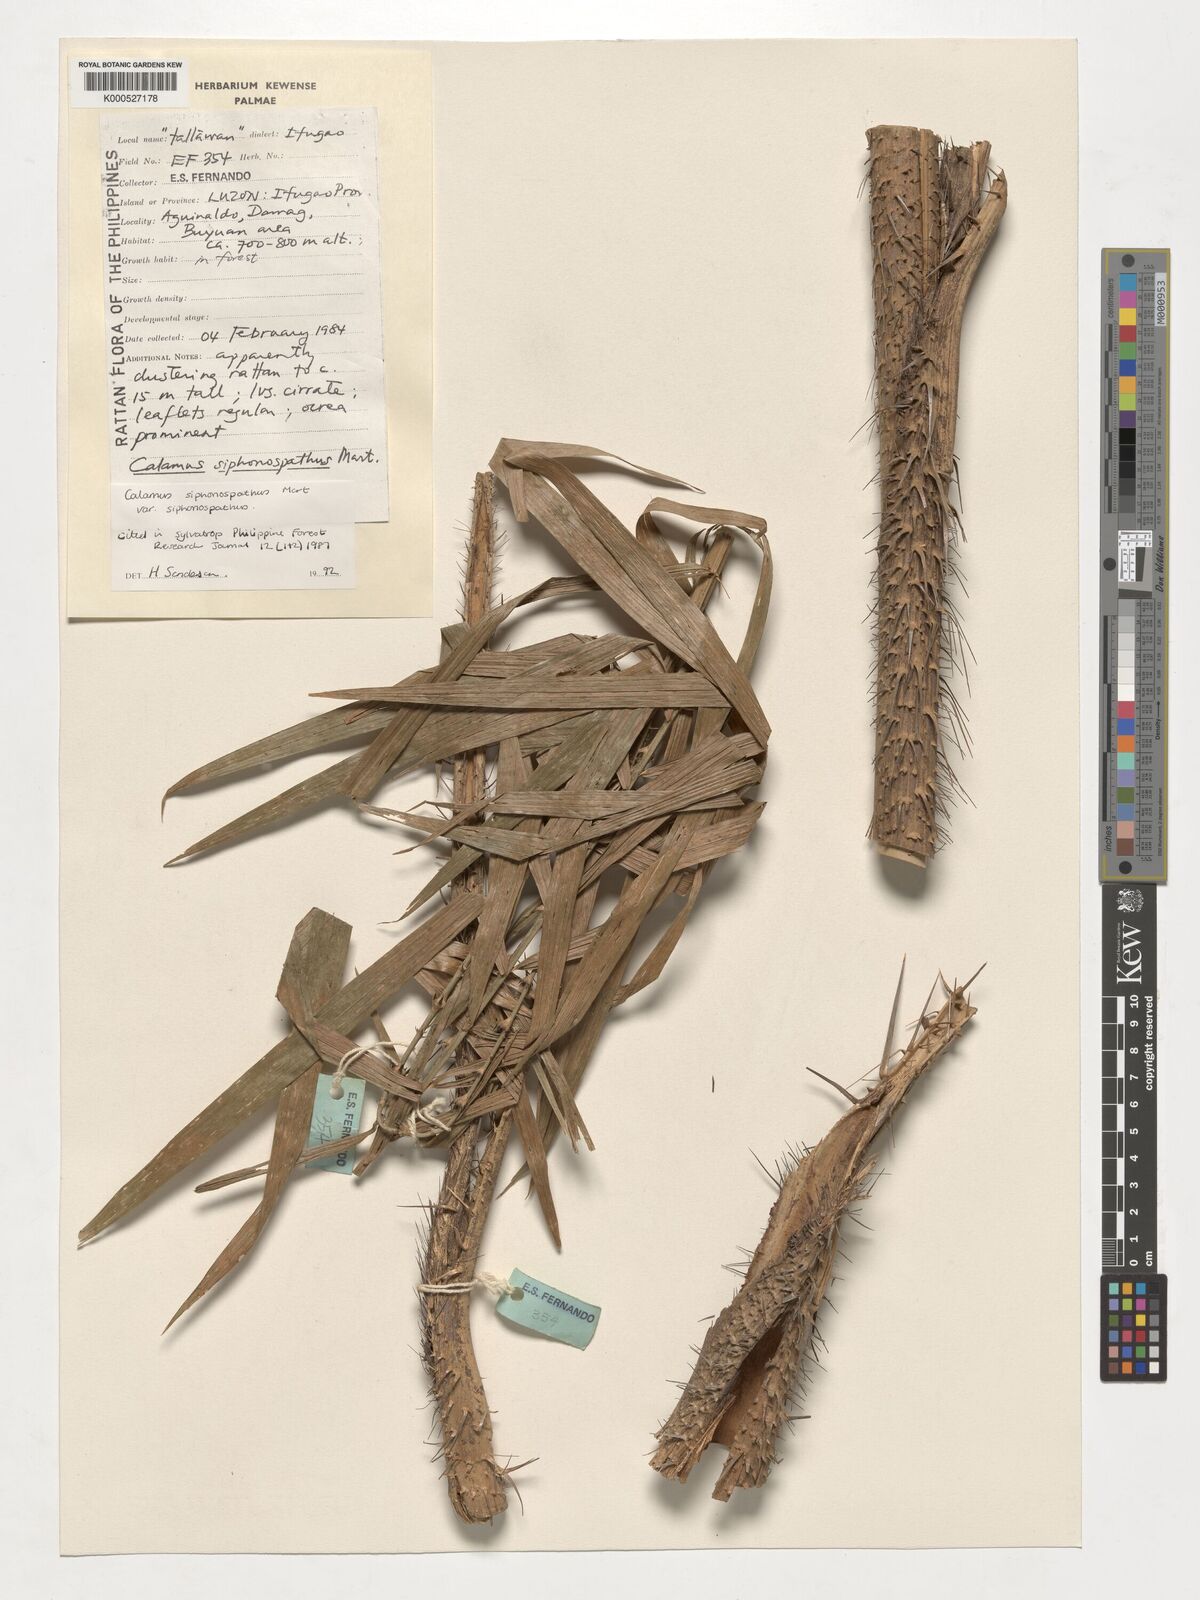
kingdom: Plantae
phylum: Tracheophyta
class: Liliopsida
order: Arecales
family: Arecaceae
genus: Calamus
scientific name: Calamus siphonospathus
